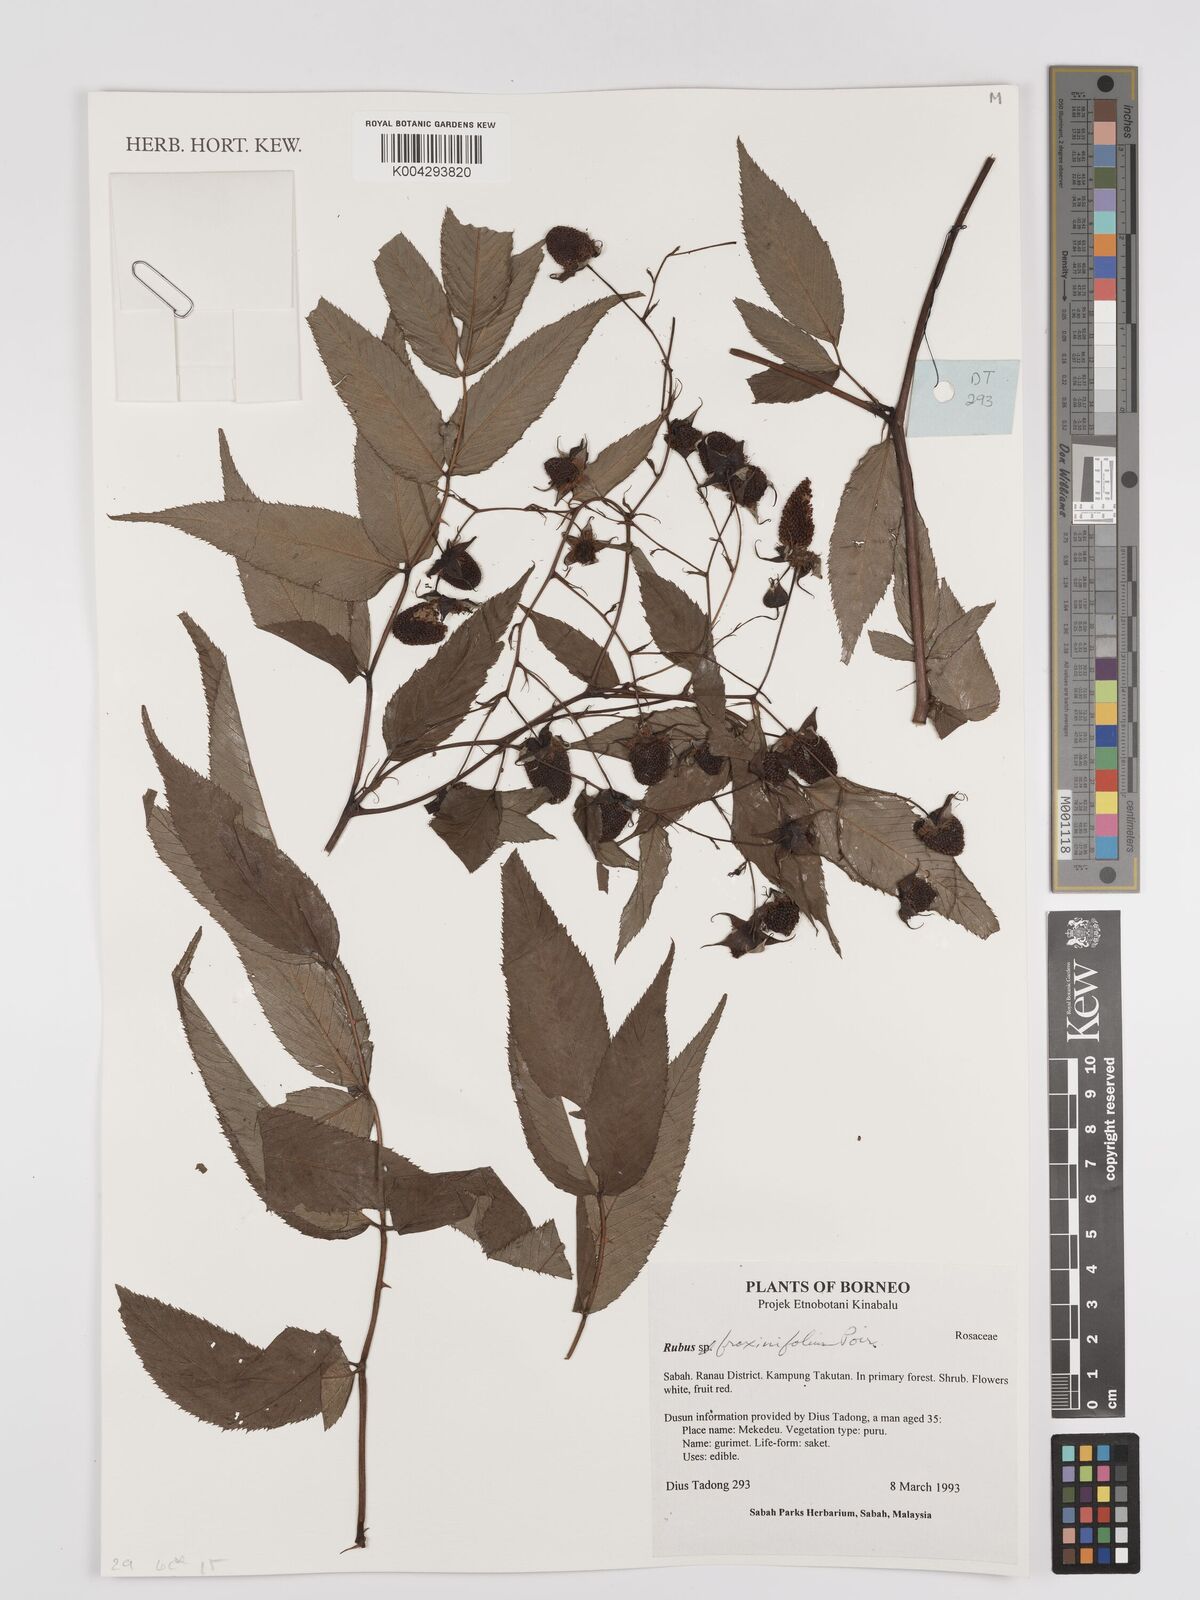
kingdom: Plantae
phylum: Tracheophyta
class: Magnoliopsida
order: Rosales
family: Rosaceae
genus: Rubus
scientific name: Rubus fraxinifolius
